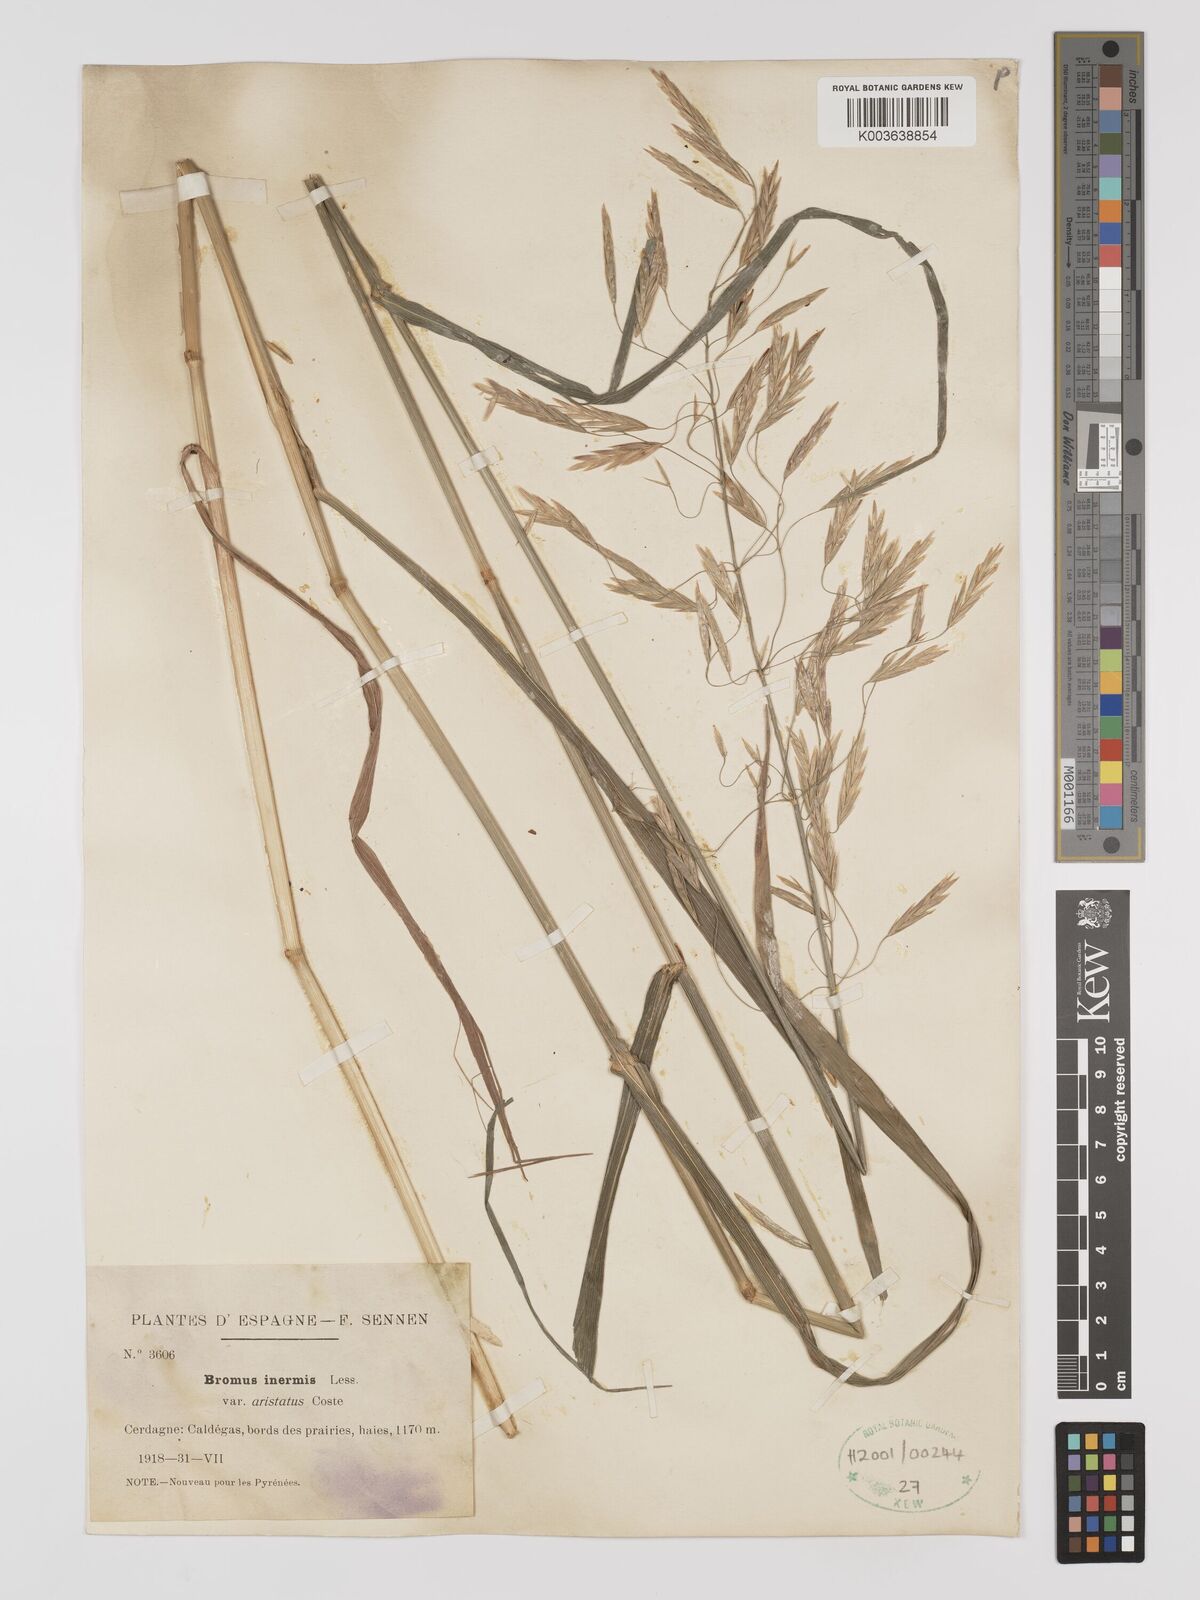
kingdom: Plantae
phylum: Tracheophyta
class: Liliopsida
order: Poales
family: Poaceae
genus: Bromus
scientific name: Bromus inermis
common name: Smooth brome
